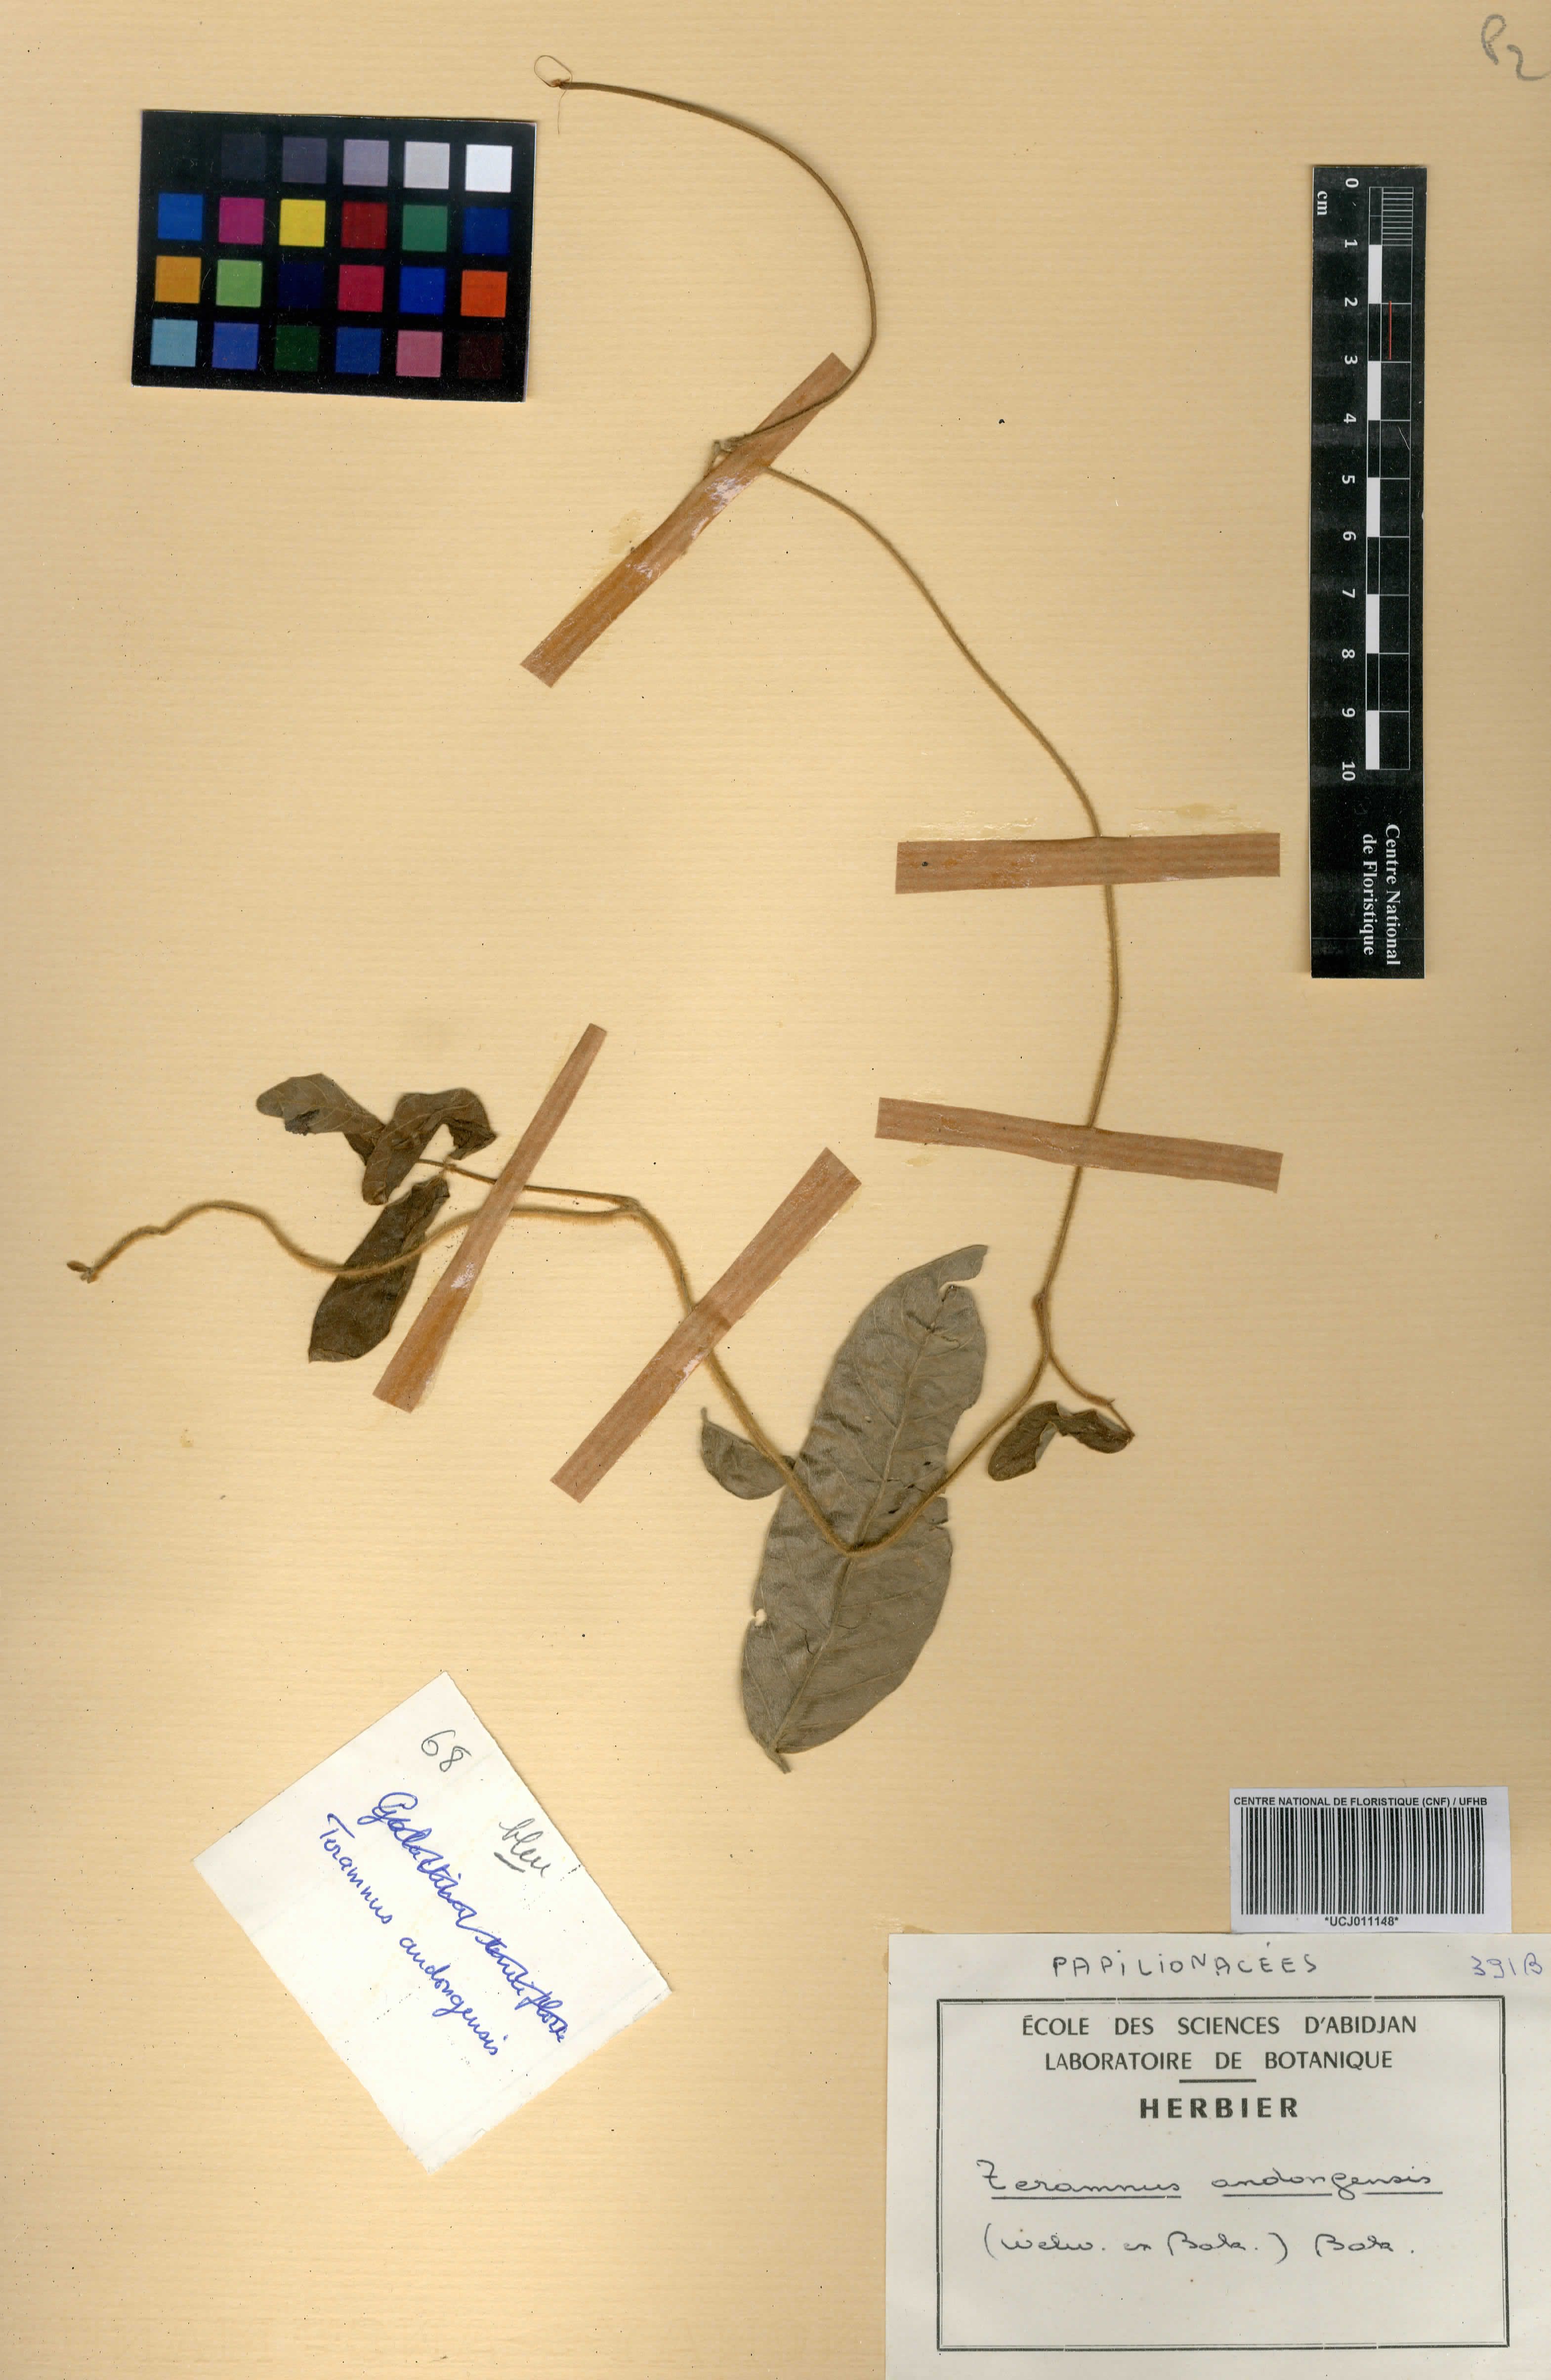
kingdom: Plantae
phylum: Tracheophyta
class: Magnoliopsida
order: Fabales
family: Fabaceae
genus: Teramnus
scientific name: Teramnus uncinatus
